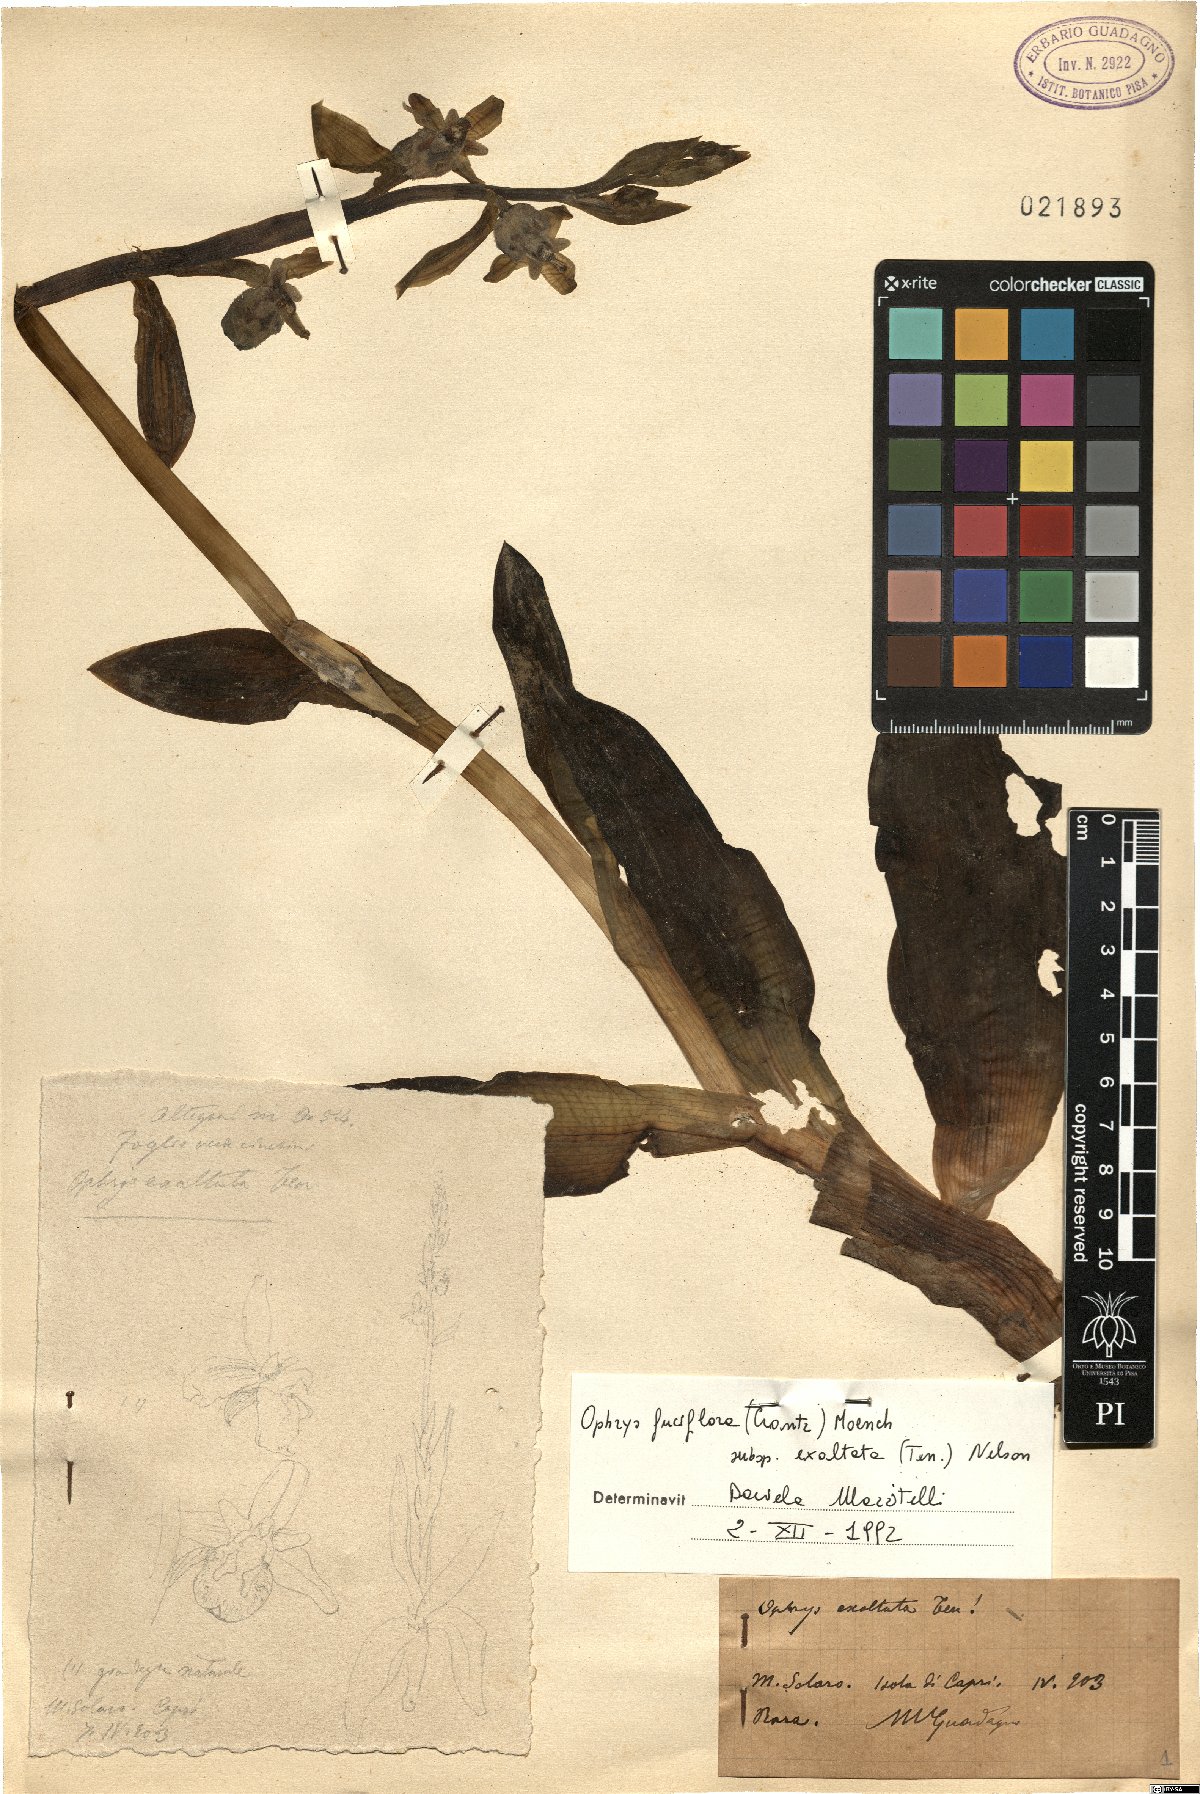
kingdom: Plantae
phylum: Tracheophyta
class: Liliopsida
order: Asparagales
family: Orchidaceae
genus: Ophrys
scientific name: Ophrys sphegodes
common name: Early spider-orchid
